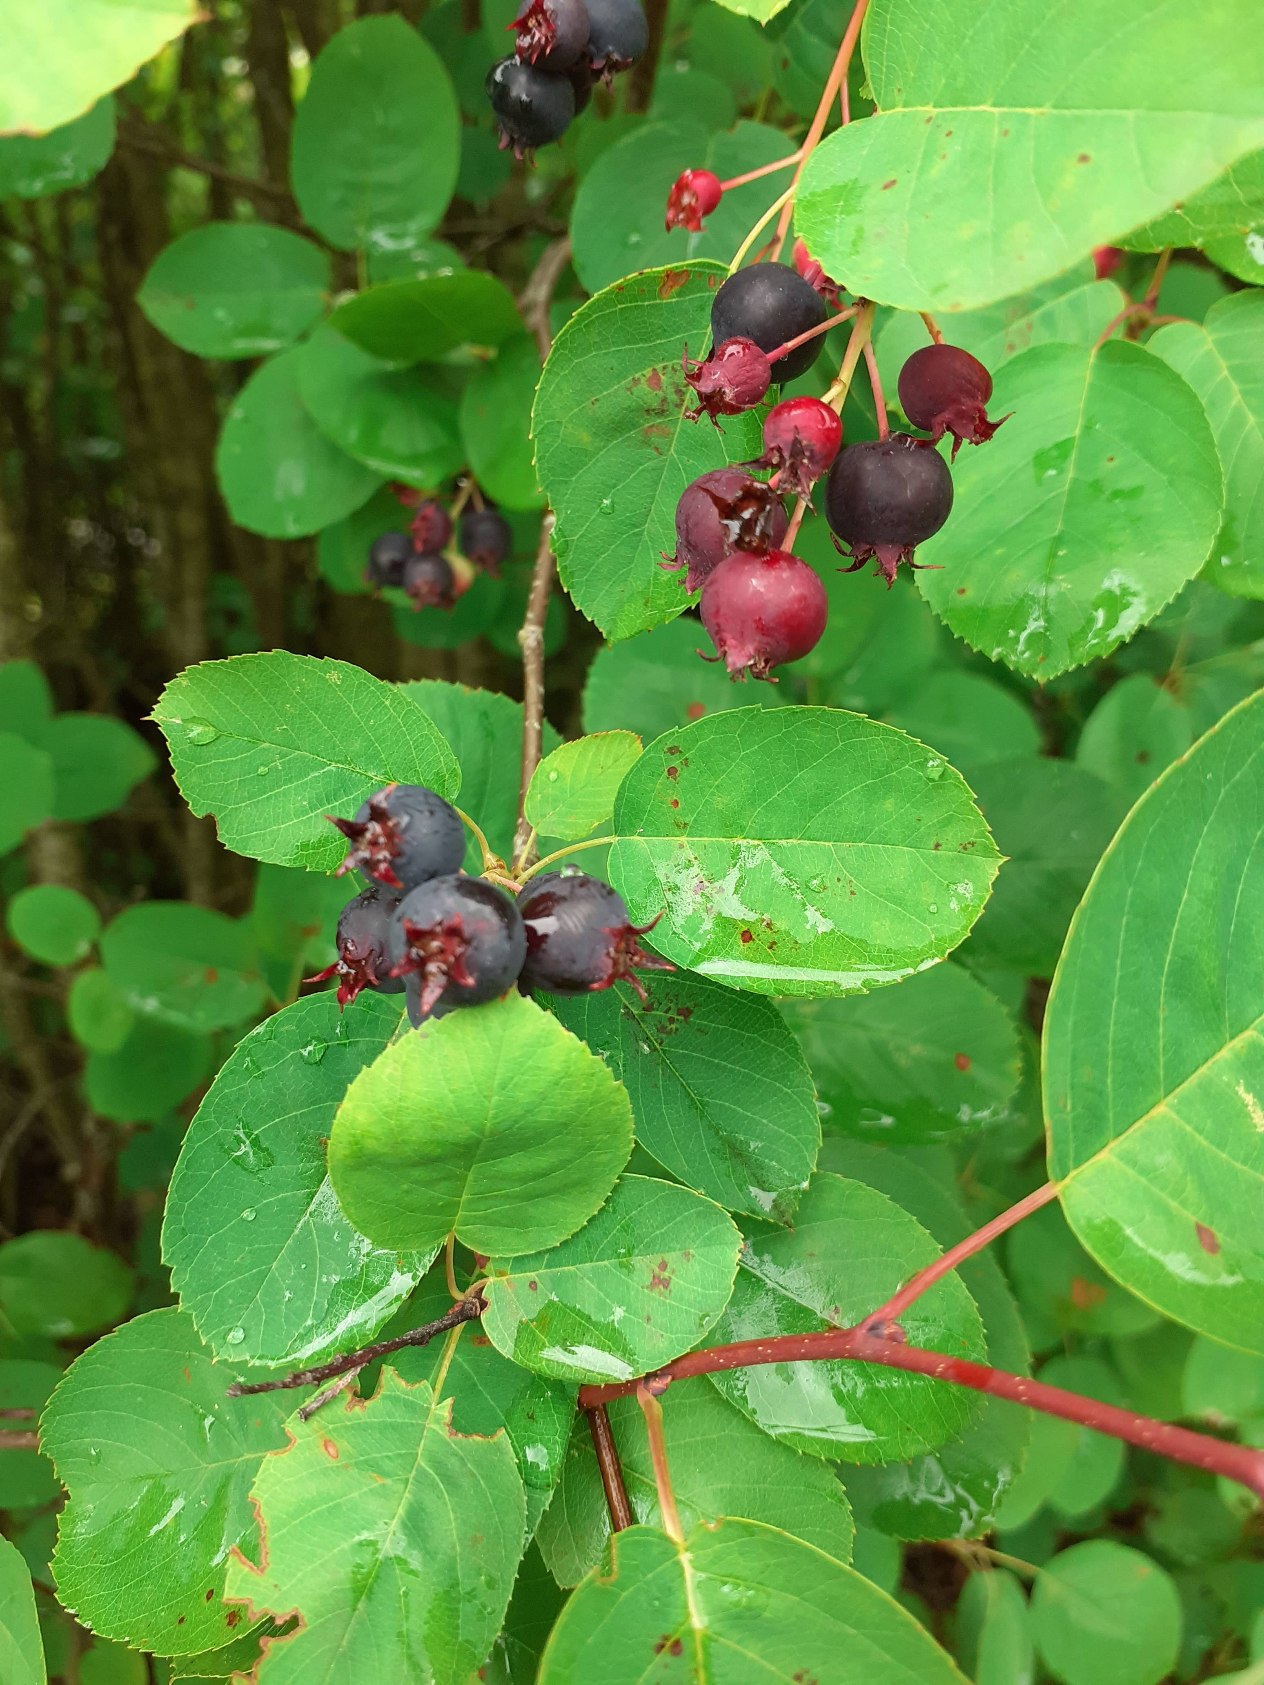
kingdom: Plantae
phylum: Tracheophyta
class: Magnoliopsida
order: Rosales
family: Rosaceae
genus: Amelanchier
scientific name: Amelanchier lamarckii
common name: Langstilket bærmispel
